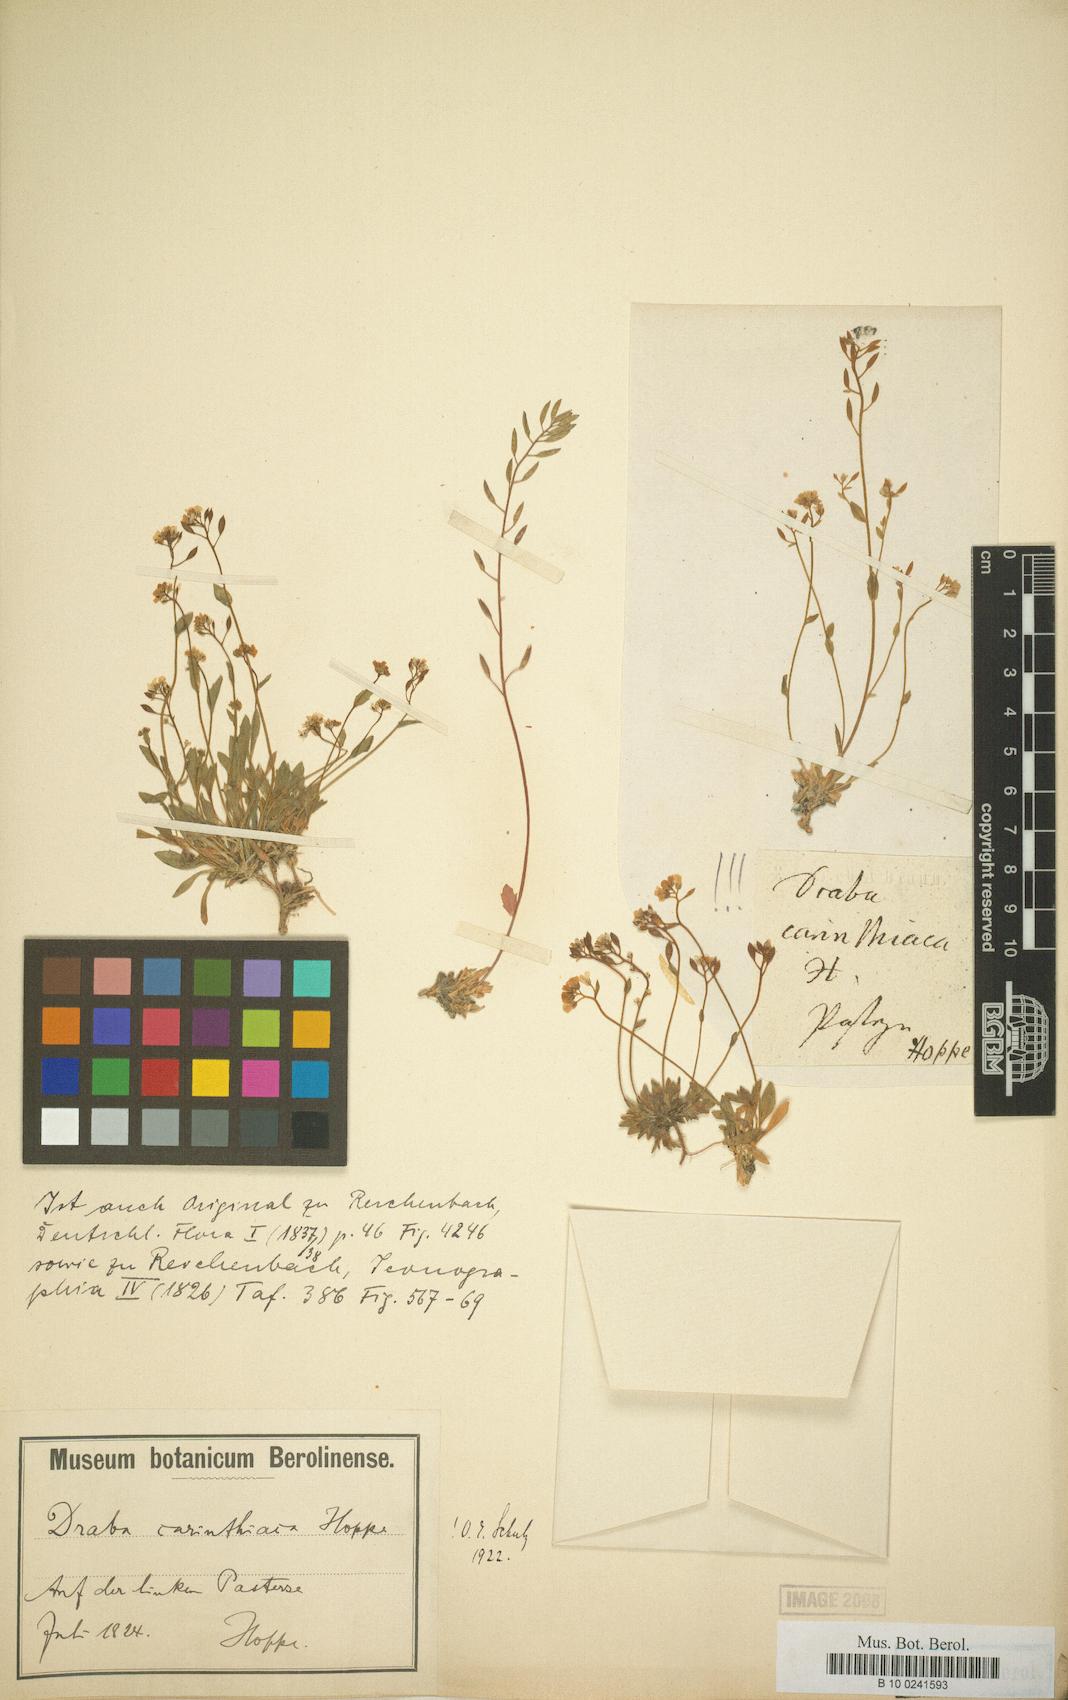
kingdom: Plantae
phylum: Tracheophyta
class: Magnoliopsida
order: Brassicales
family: Brassicaceae
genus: Draba
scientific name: Draba siliquosa
